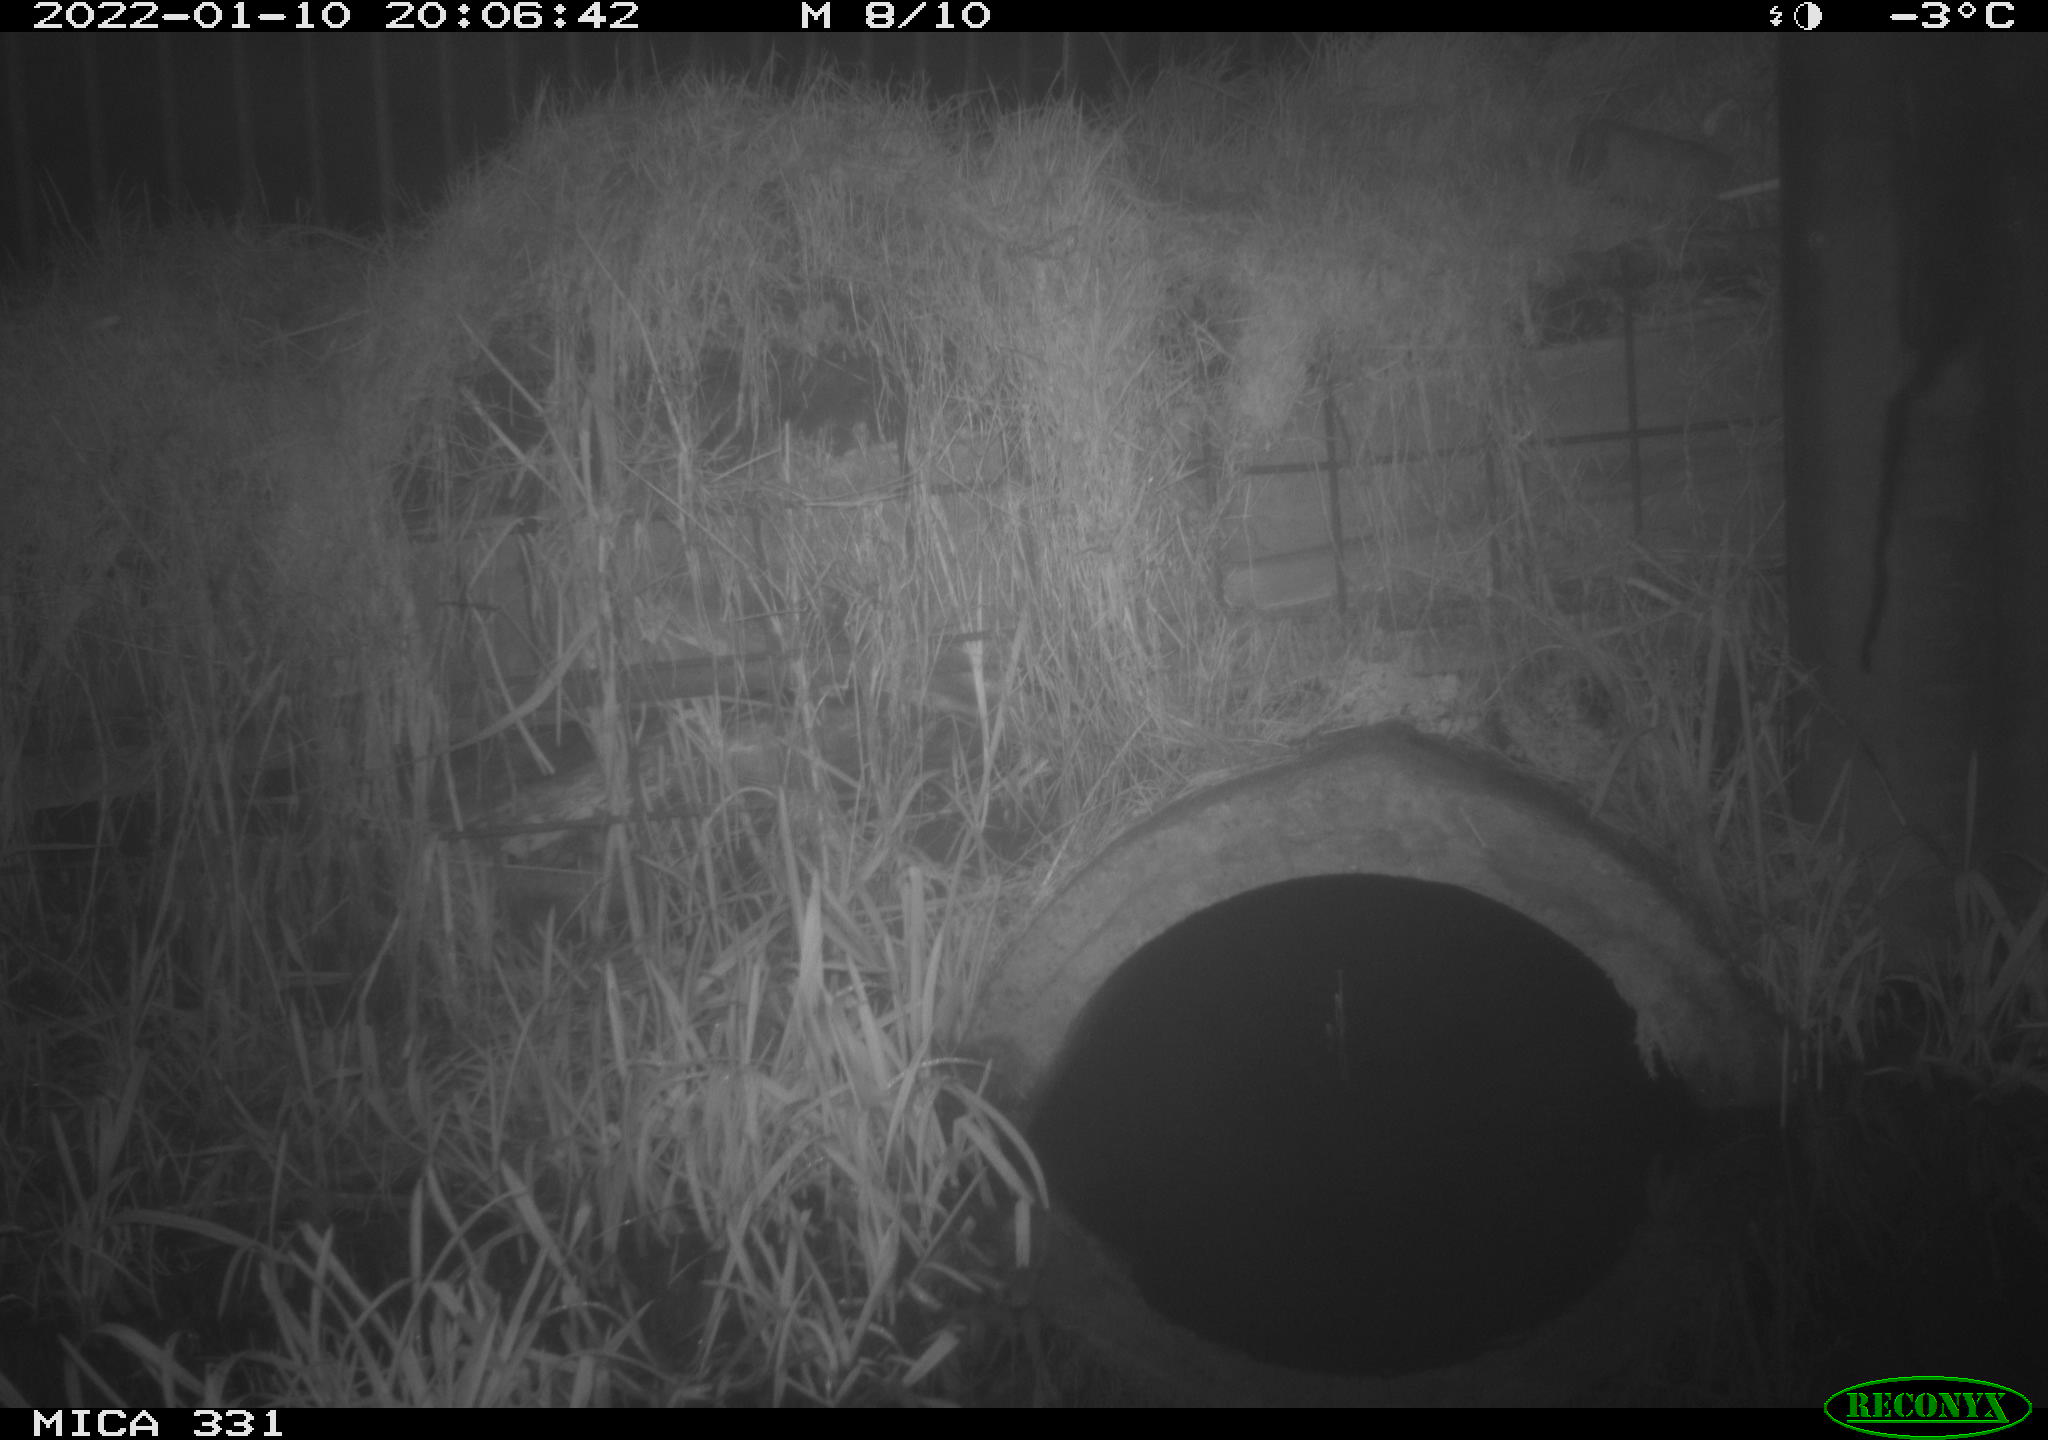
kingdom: Animalia
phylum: Chordata
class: Mammalia
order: Rodentia
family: Muridae
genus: Rattus
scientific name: Rattus norvegicus
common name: Brown rat
